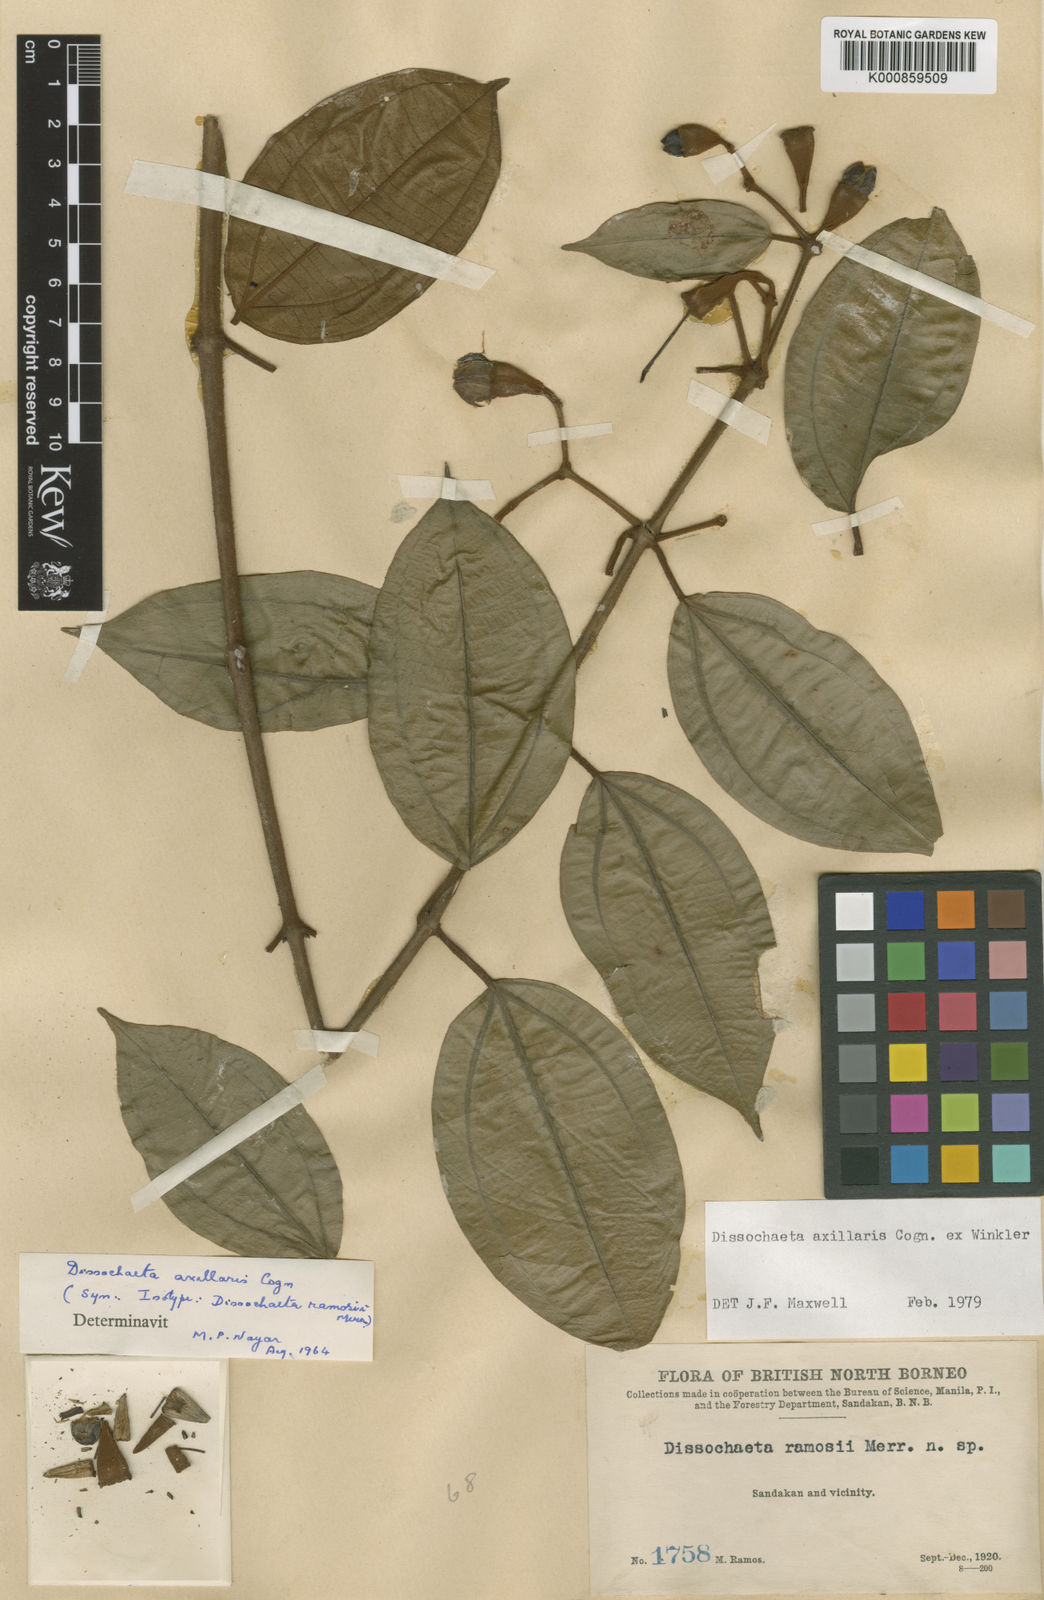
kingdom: Plantae
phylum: Tracheophyta
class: Magnoliopsida
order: Myrtales
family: Melastomataceae
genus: Dissochaeta
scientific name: Dissochaeta axillaris
